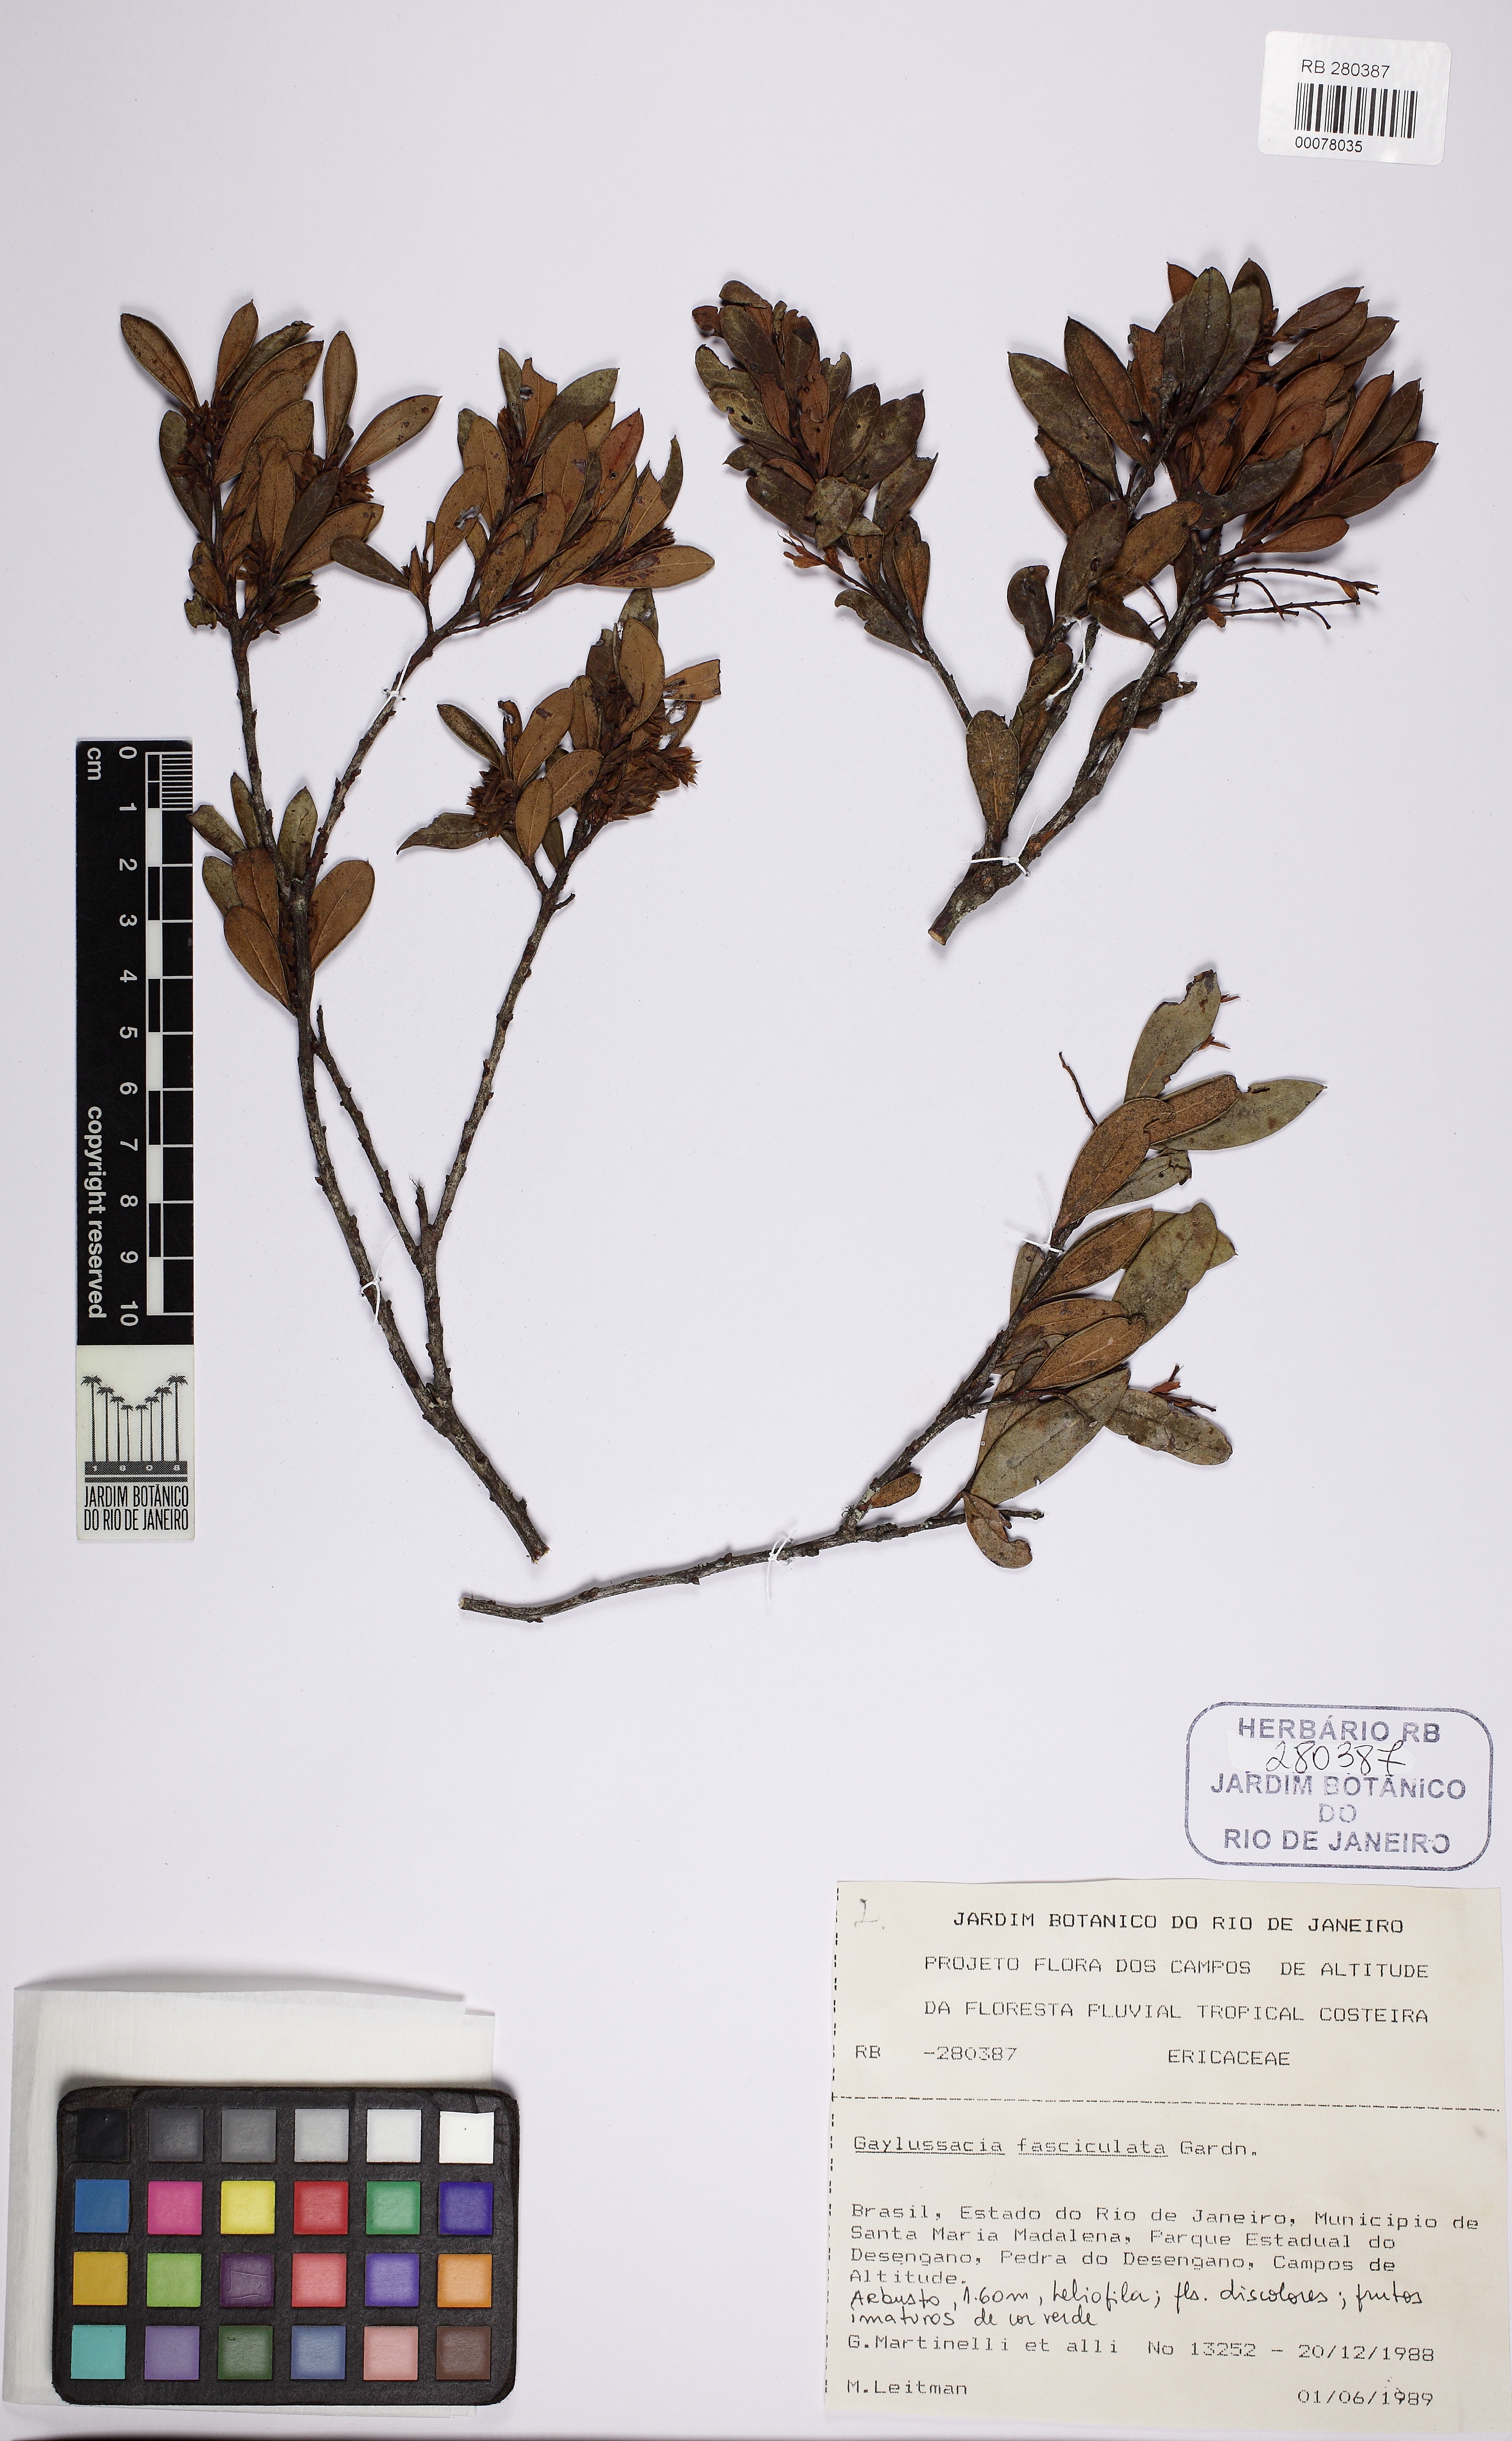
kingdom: Plantae
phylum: Tracheophyta
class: Magnoliopsida
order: Ericales
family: Ericaceae
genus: Gaylussacia
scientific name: Gaylussacia fasciculata
